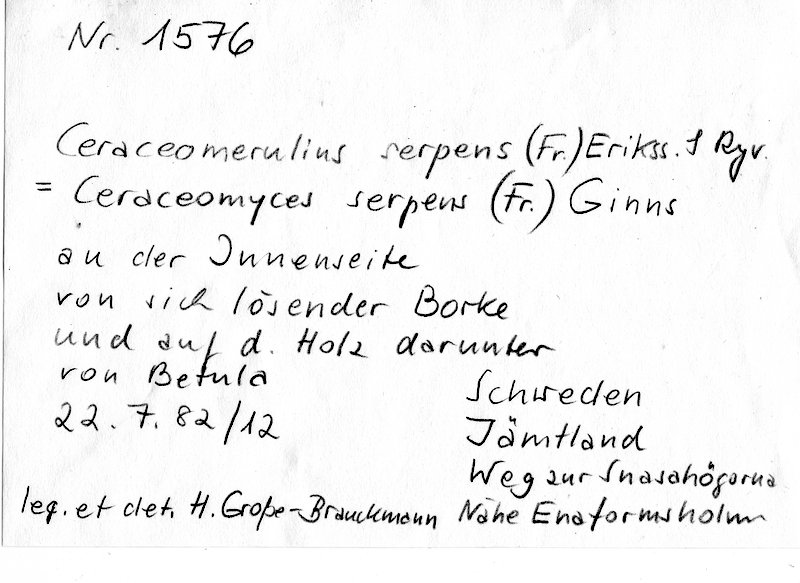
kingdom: Plantae
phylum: Tracheophyta
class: Magnoliopsida
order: Fagales
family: Betulaceae
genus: Betula
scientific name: Betula
